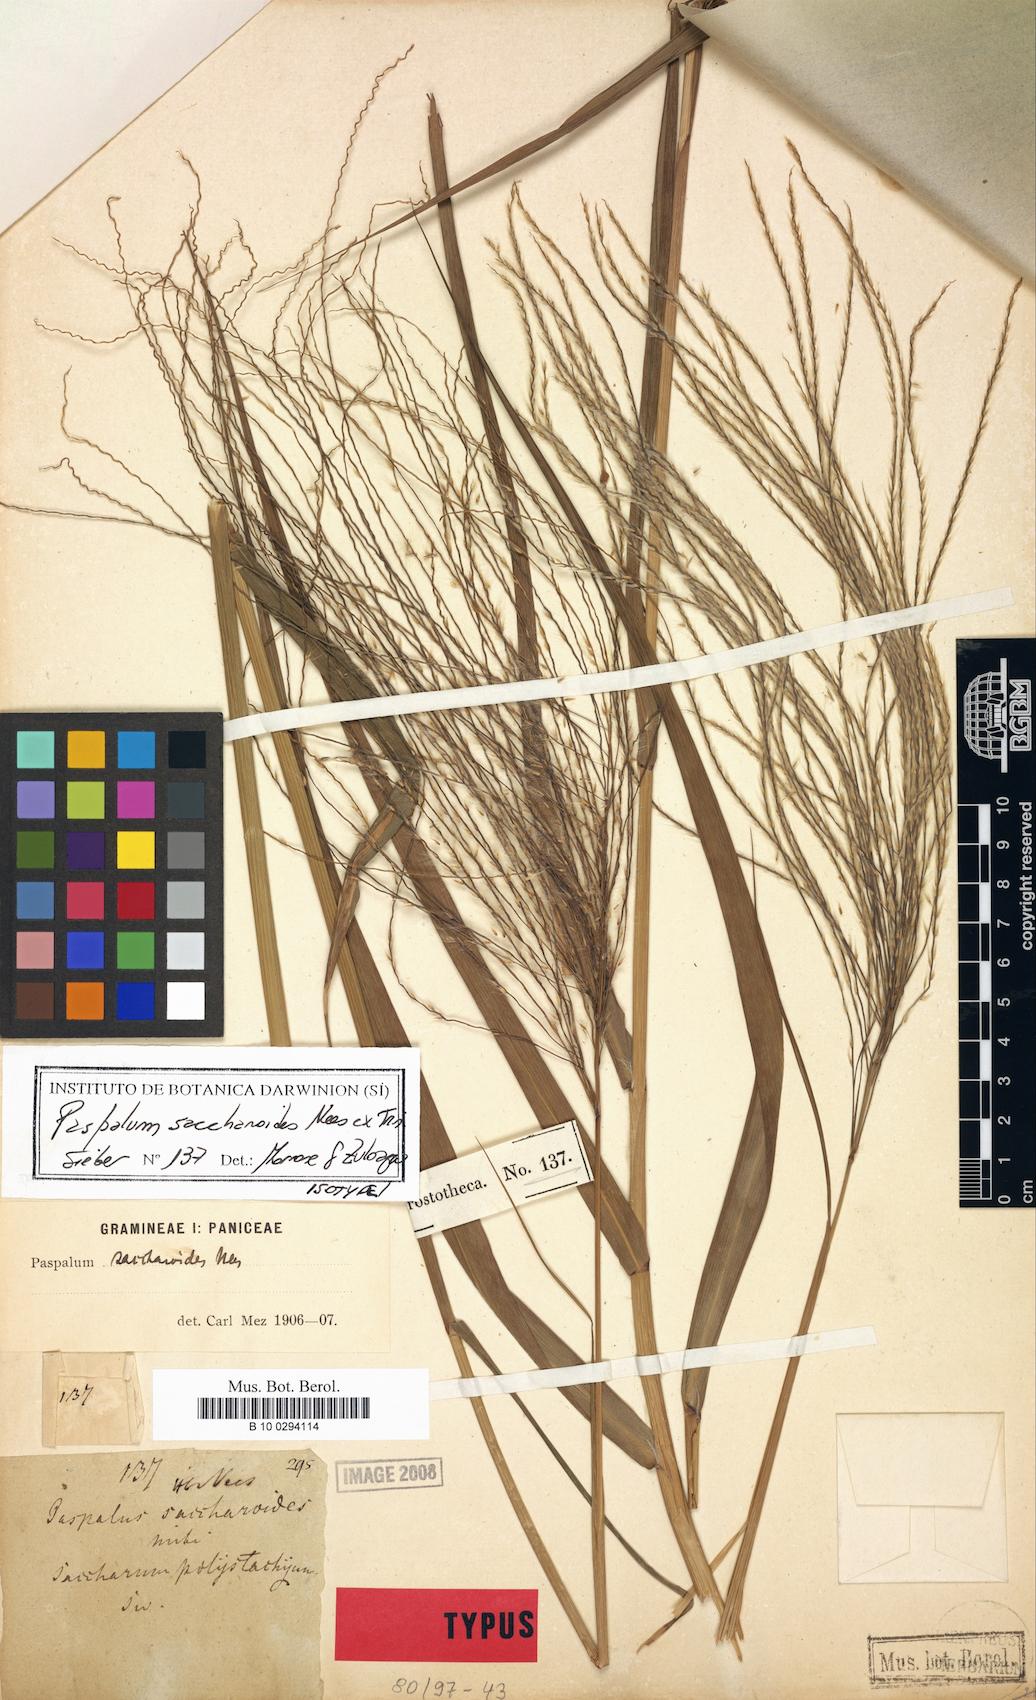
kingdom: Plantae
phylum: Tracheophyta
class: Liliopsida
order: Poales
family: Poaceae
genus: Paspalum
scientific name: Paspalum saccharoides
